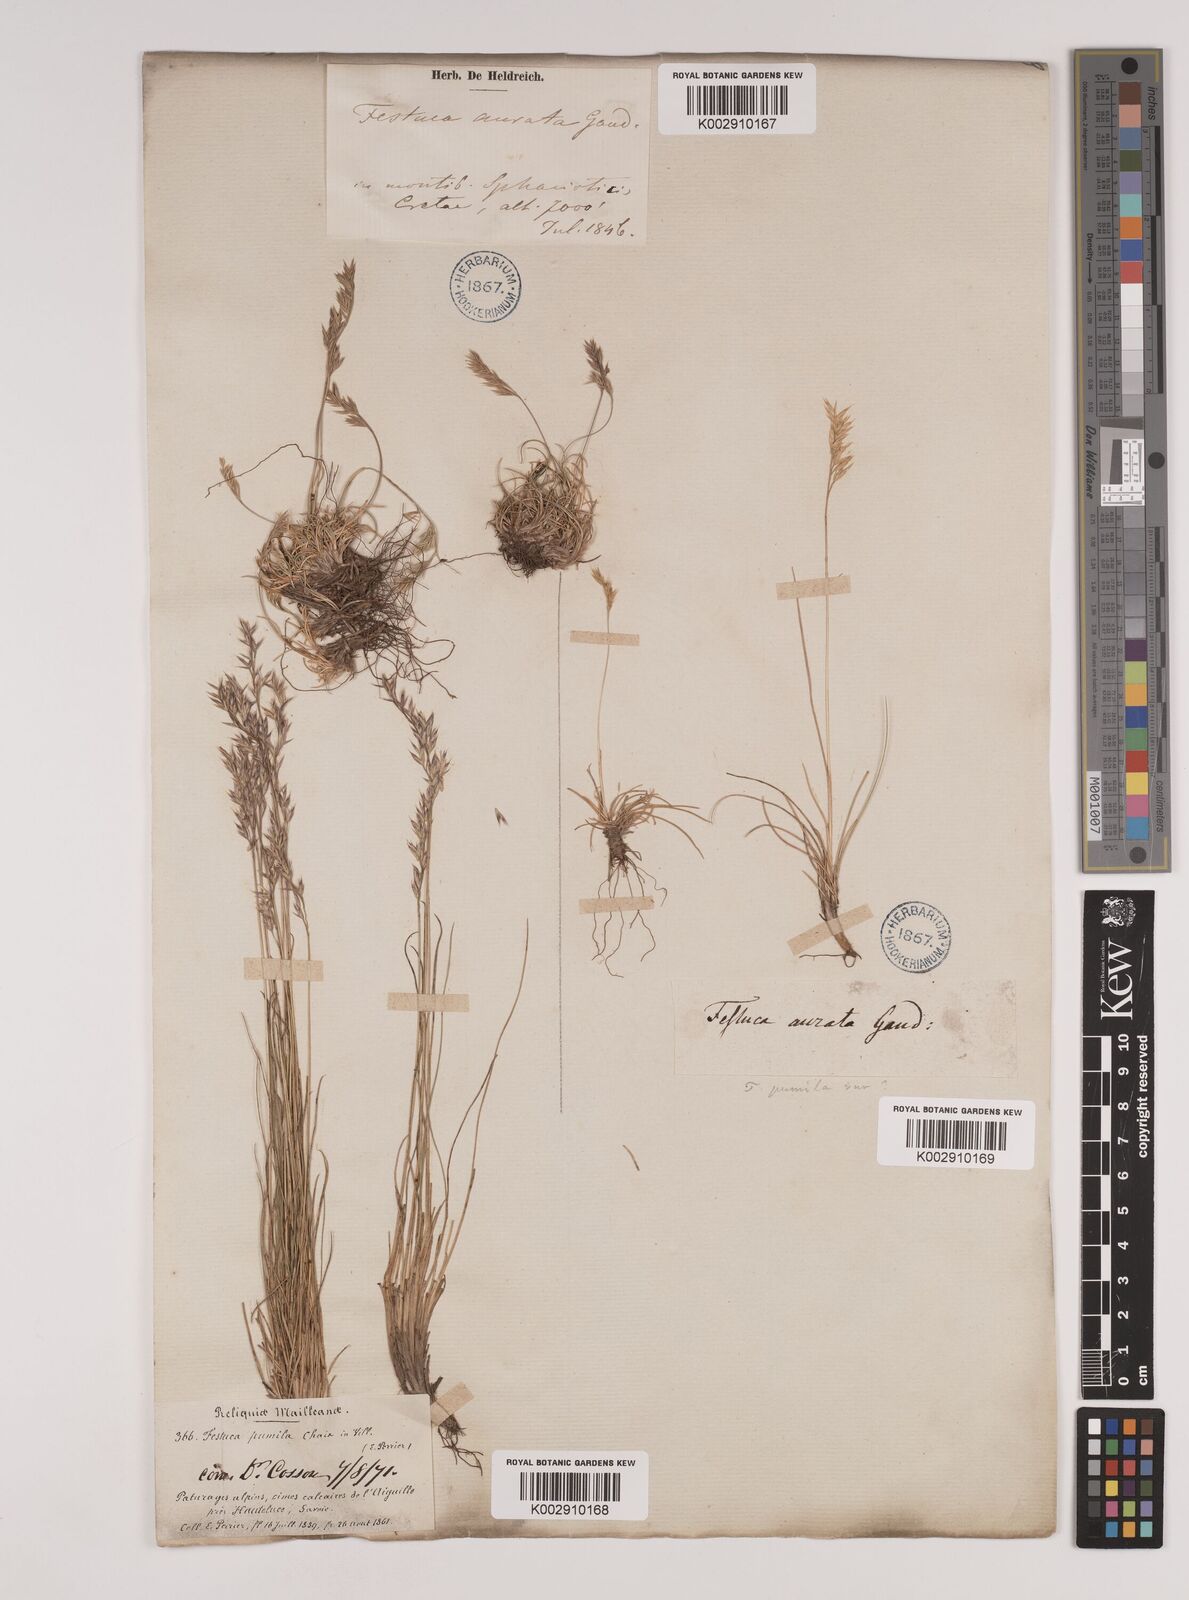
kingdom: Plantae
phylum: Tracheophyta
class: Liliopsida
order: Poales
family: Poaceae
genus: Festuca
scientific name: Festuca
